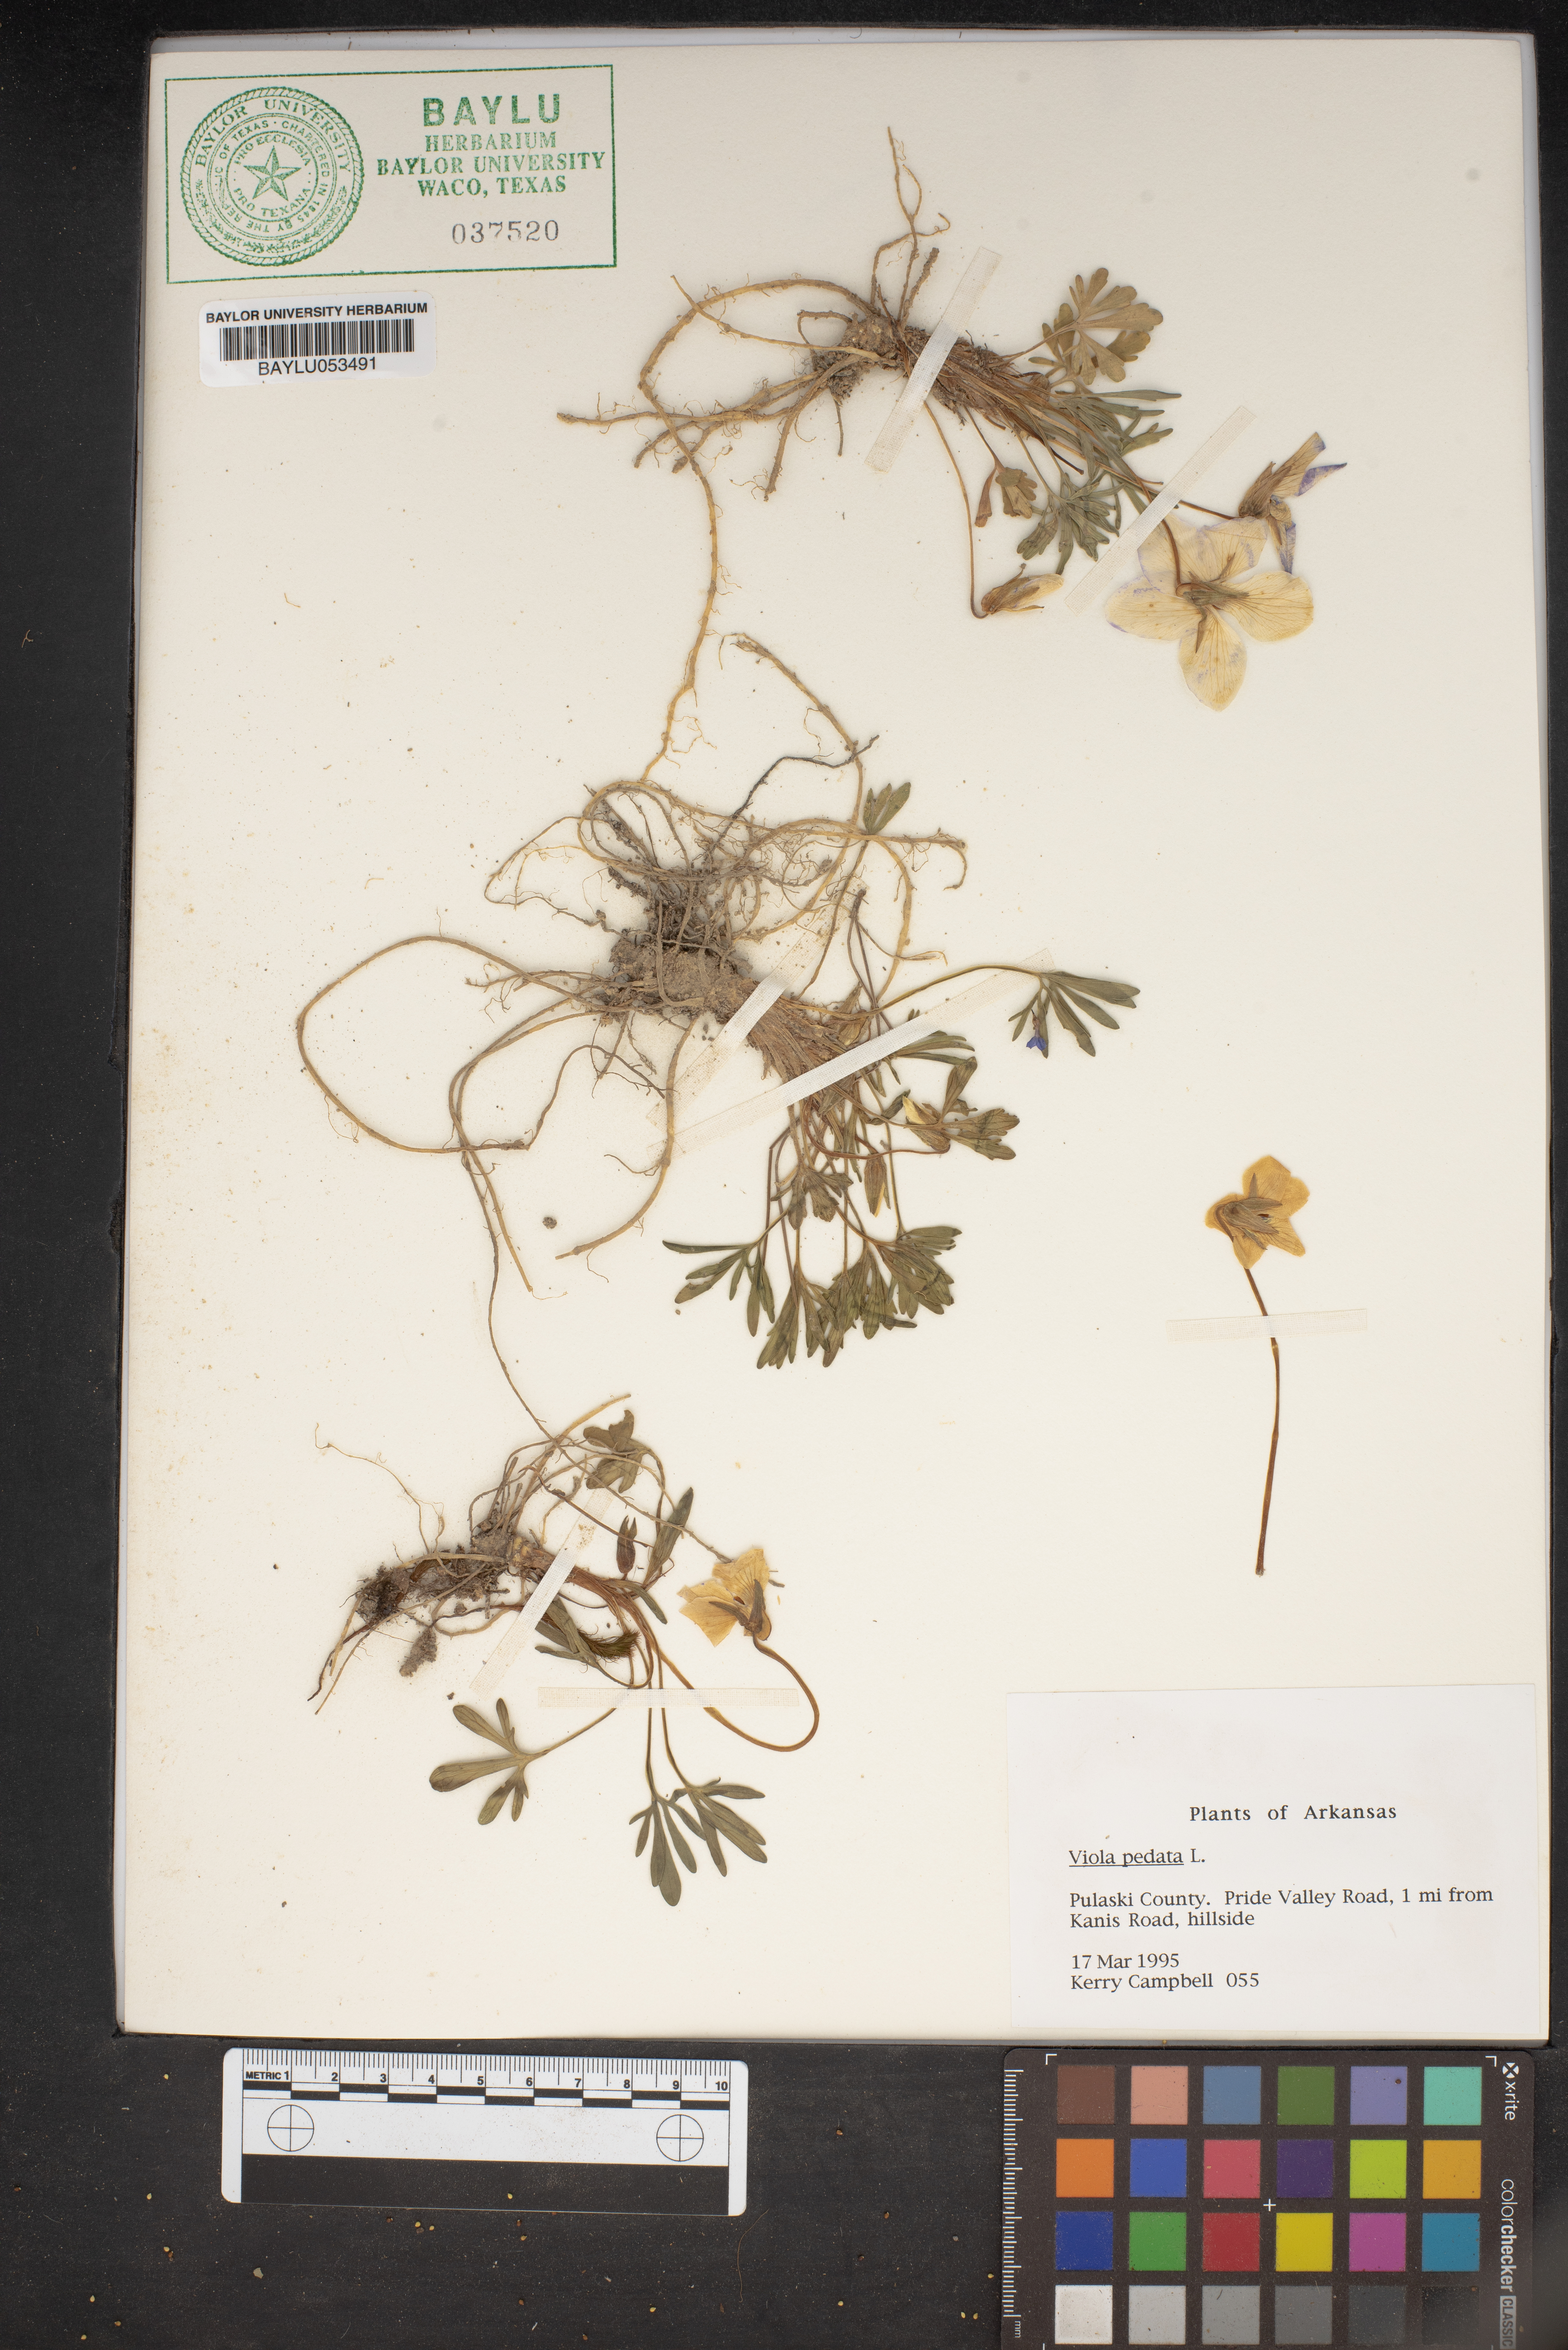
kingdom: Plantae
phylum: Tracheophyta
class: Magnoliopsida
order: Malpighiales
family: Violaceae
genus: Viola
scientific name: Viola pedata
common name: Pansy violet
